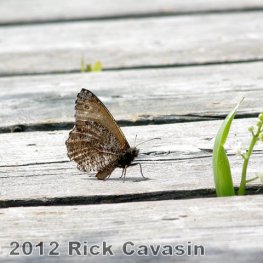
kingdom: Animalia
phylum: Arthropoda
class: Insecta
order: Lepidoptera
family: Nymphalidae
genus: Oeneis
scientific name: Oeneis jutta
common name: Jutta Arctic
